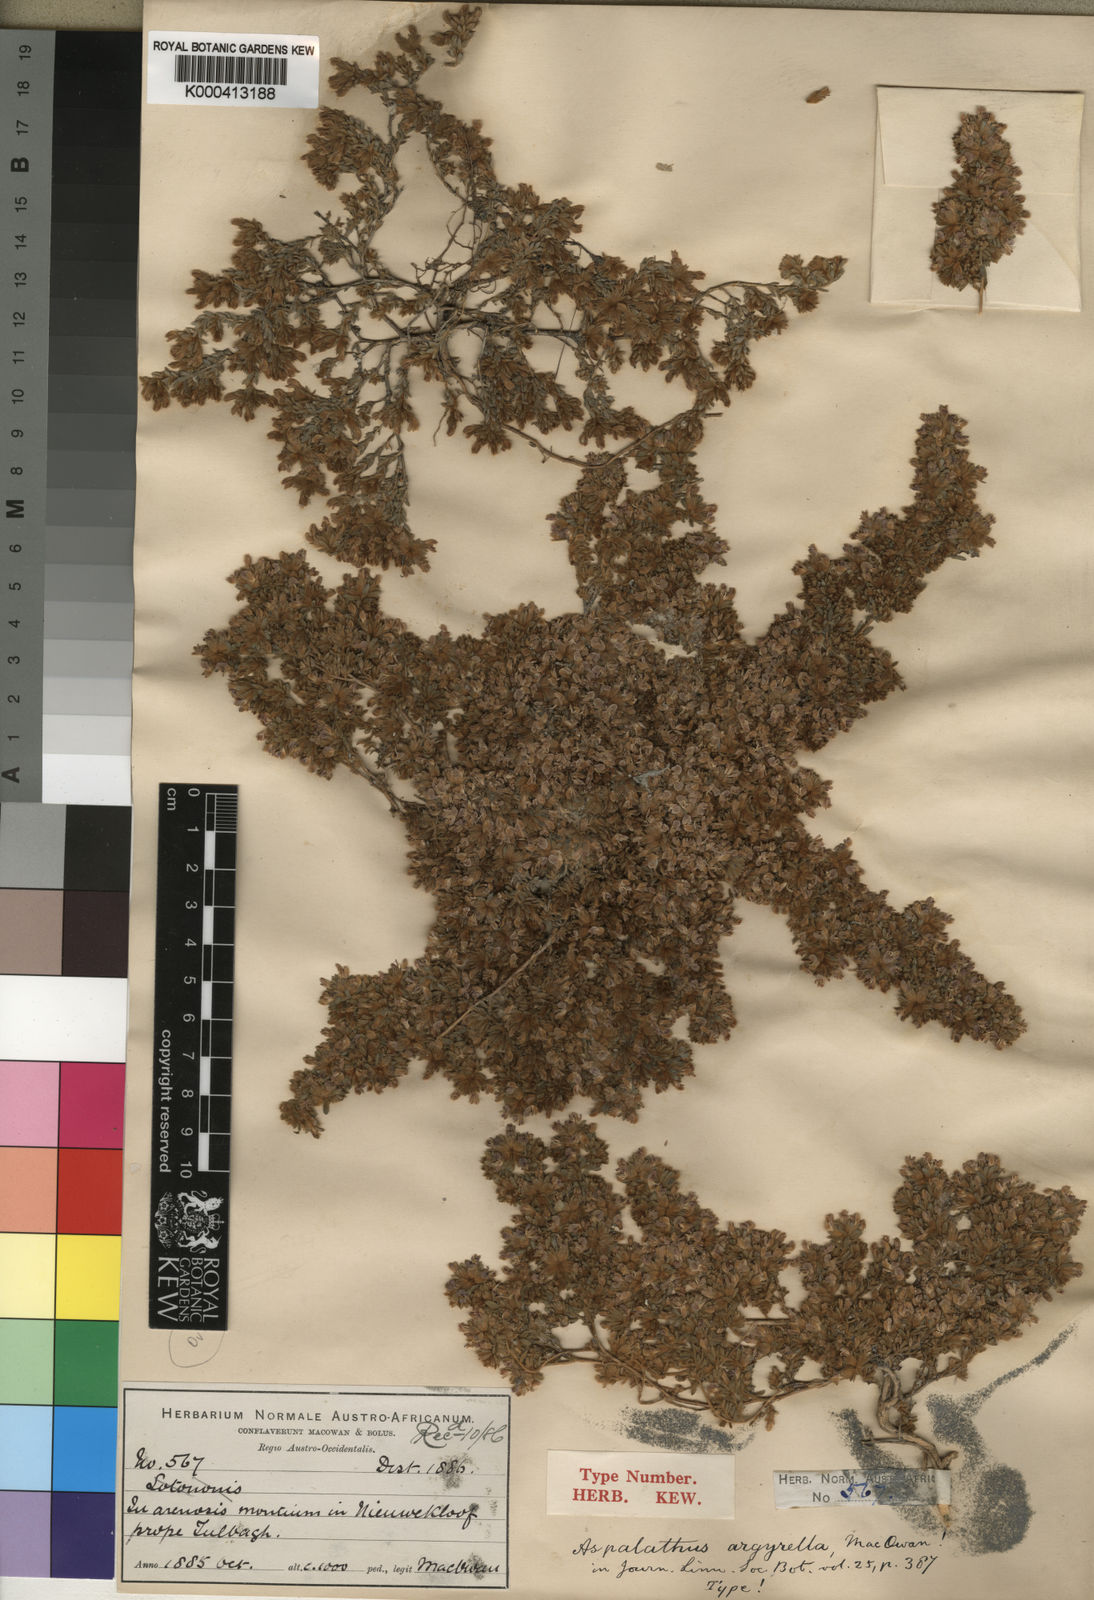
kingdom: Plantae
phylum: Tracheophyta
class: Magnoliopsida
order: Fabales
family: Fabaceae
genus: Aspalathus
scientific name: Aspalathus argyrella
